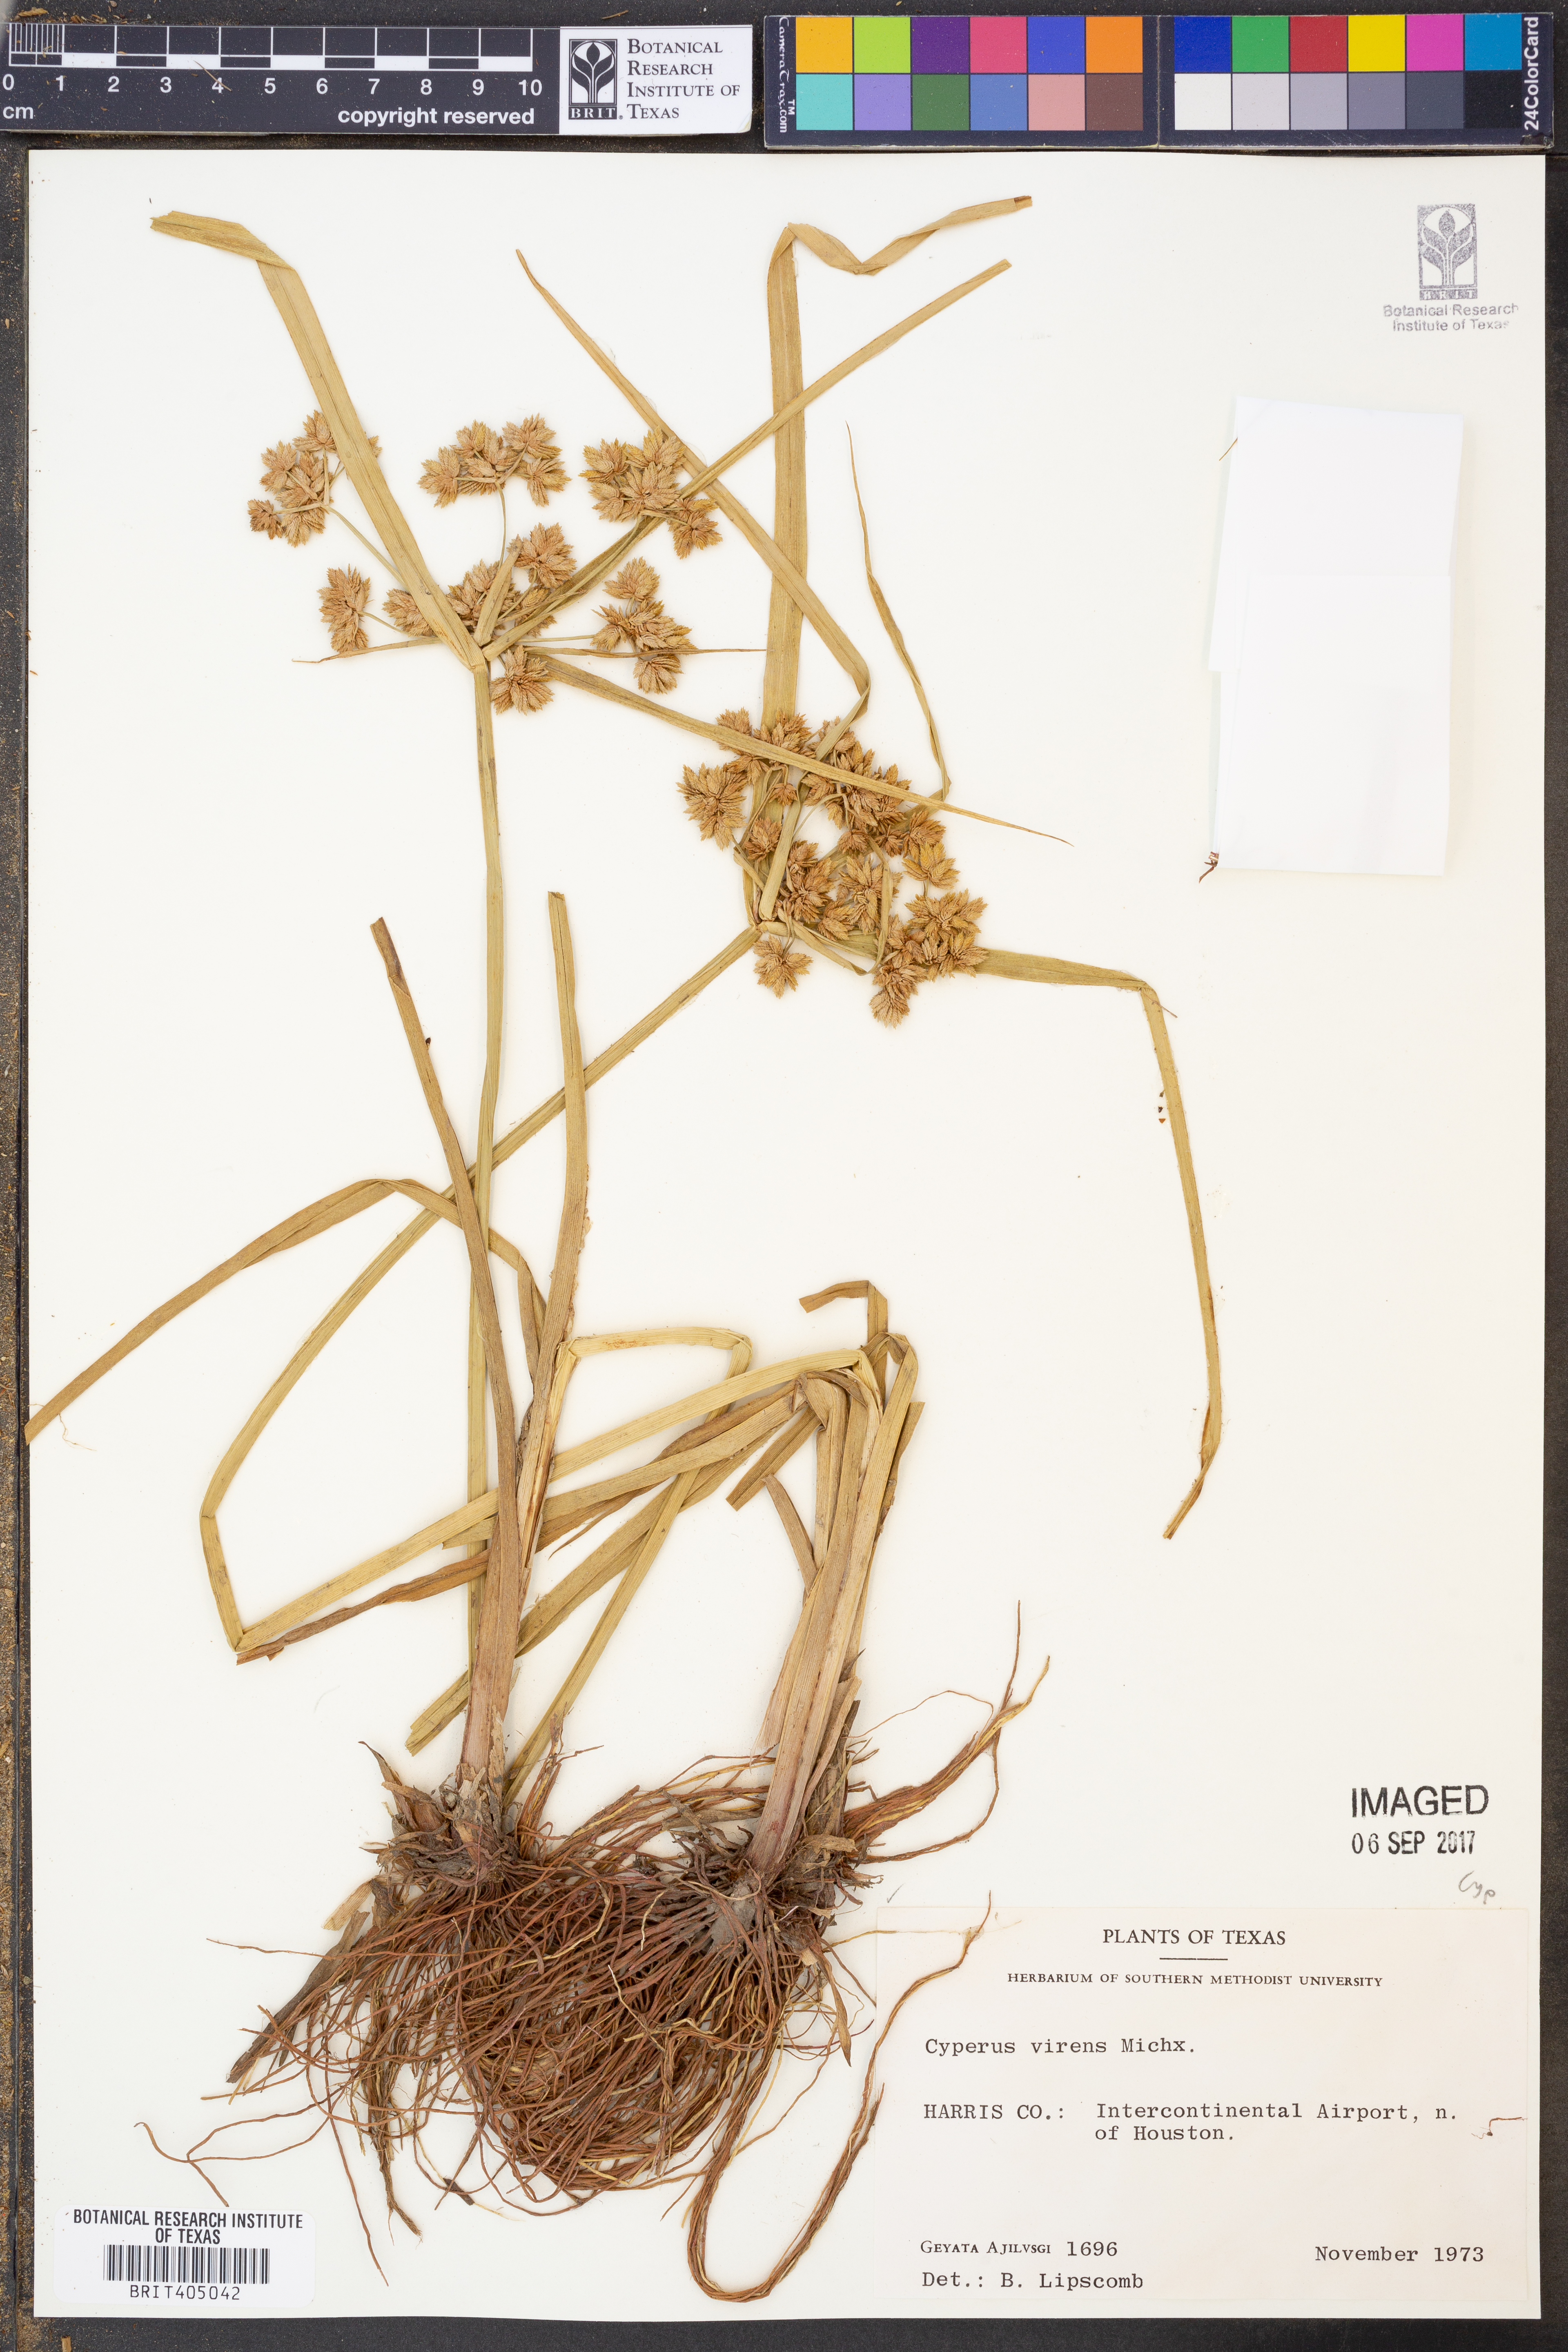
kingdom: Plantae
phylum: Tracheophyta
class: Liliopsida
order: Poales
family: Cyperaceae
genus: Cyperus
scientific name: Cyperus virens
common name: Green flatsedge
